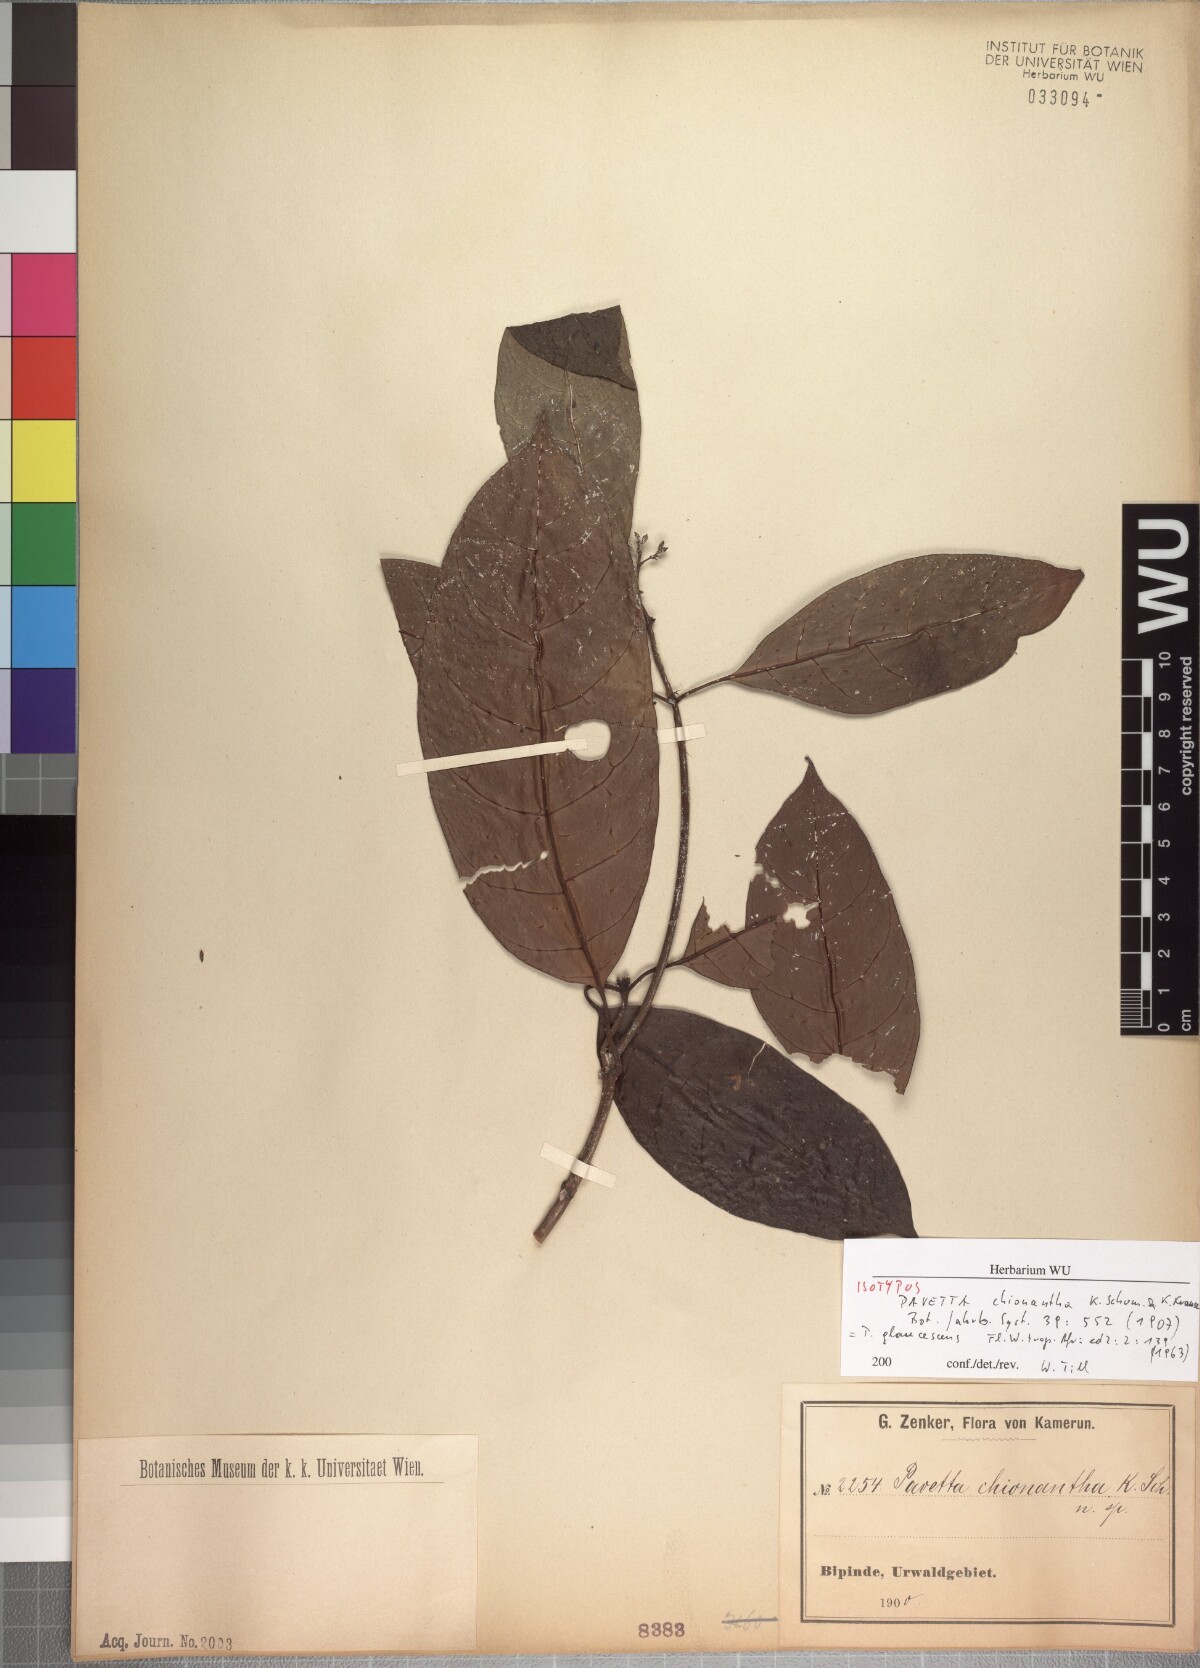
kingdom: Plantae
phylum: Tracheophyta
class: Magnoliopsida
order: Gentianales
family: Rubiaceae
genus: Pavetta
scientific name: Pavetta owariensis
